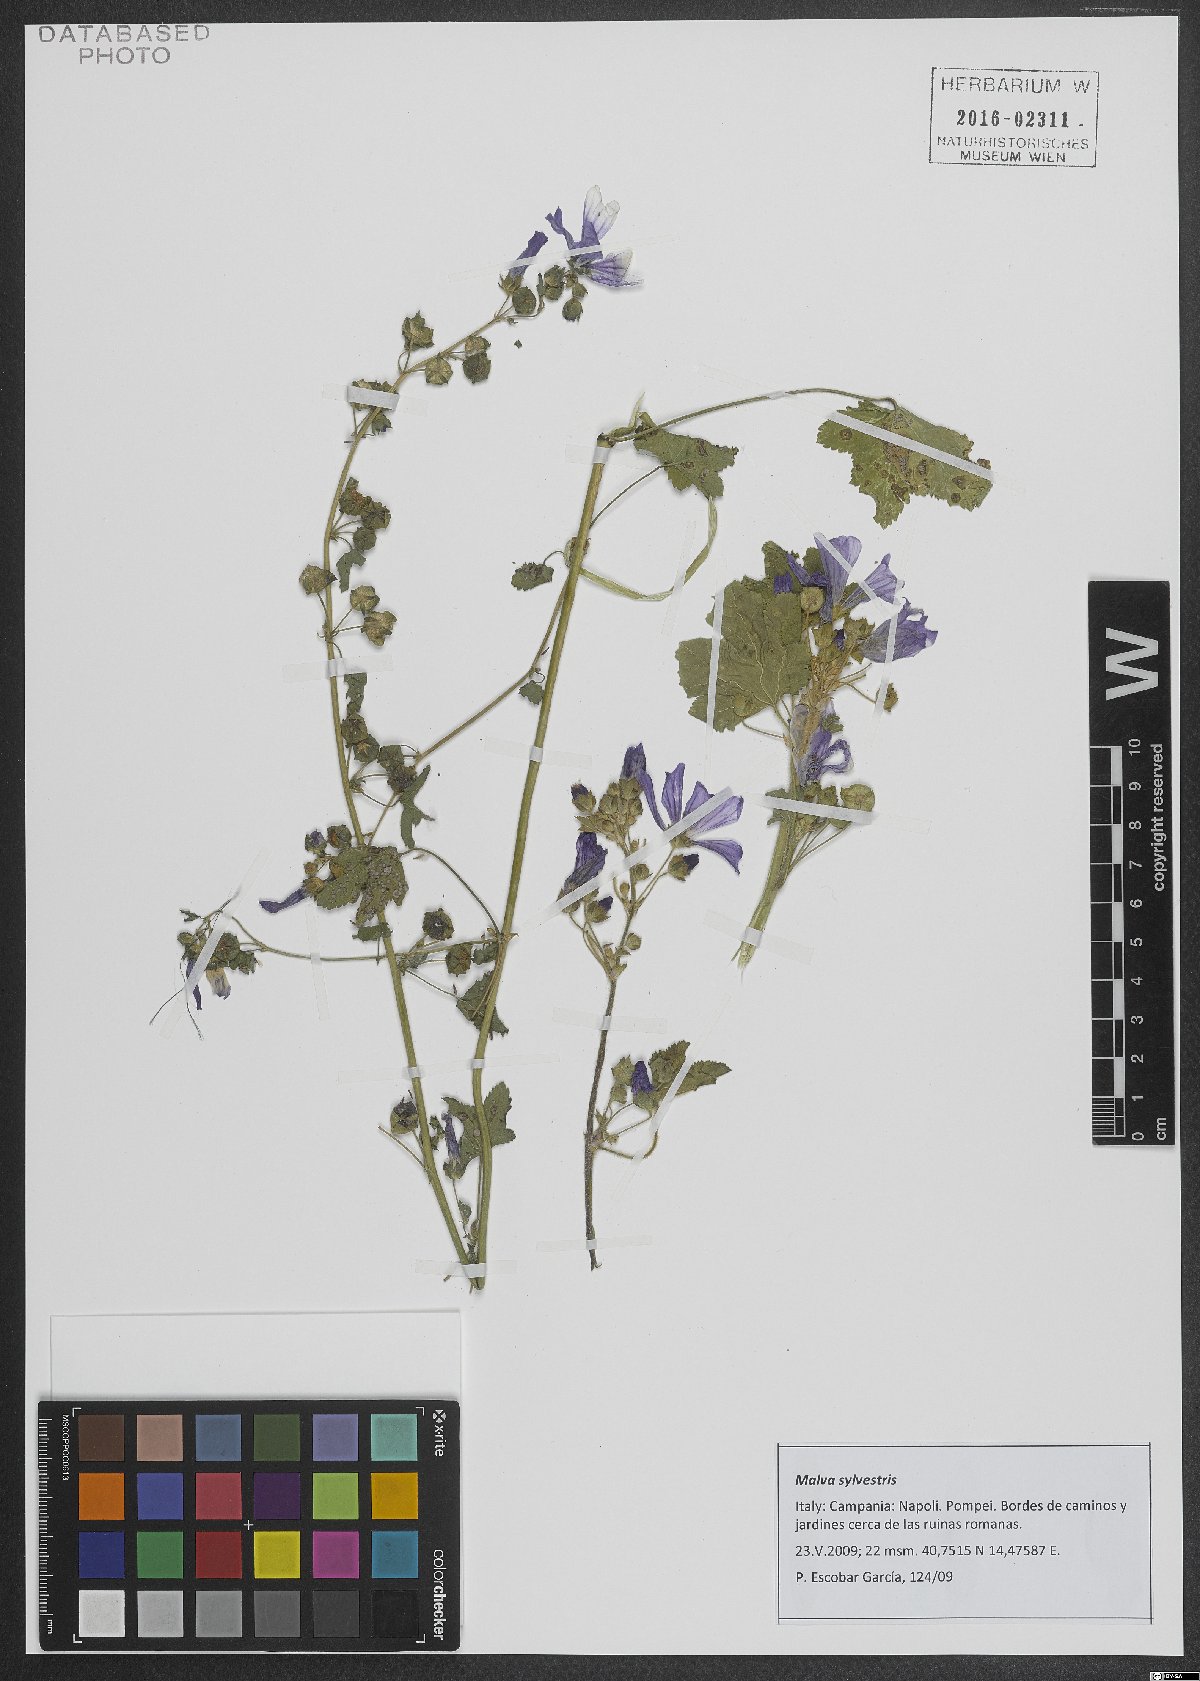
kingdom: Plantae
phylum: Tracheophyta
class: Magnoliopsida
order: Malvales
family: Malvaceae
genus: Malva
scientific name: Malva sylvestris
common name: Common mallow
